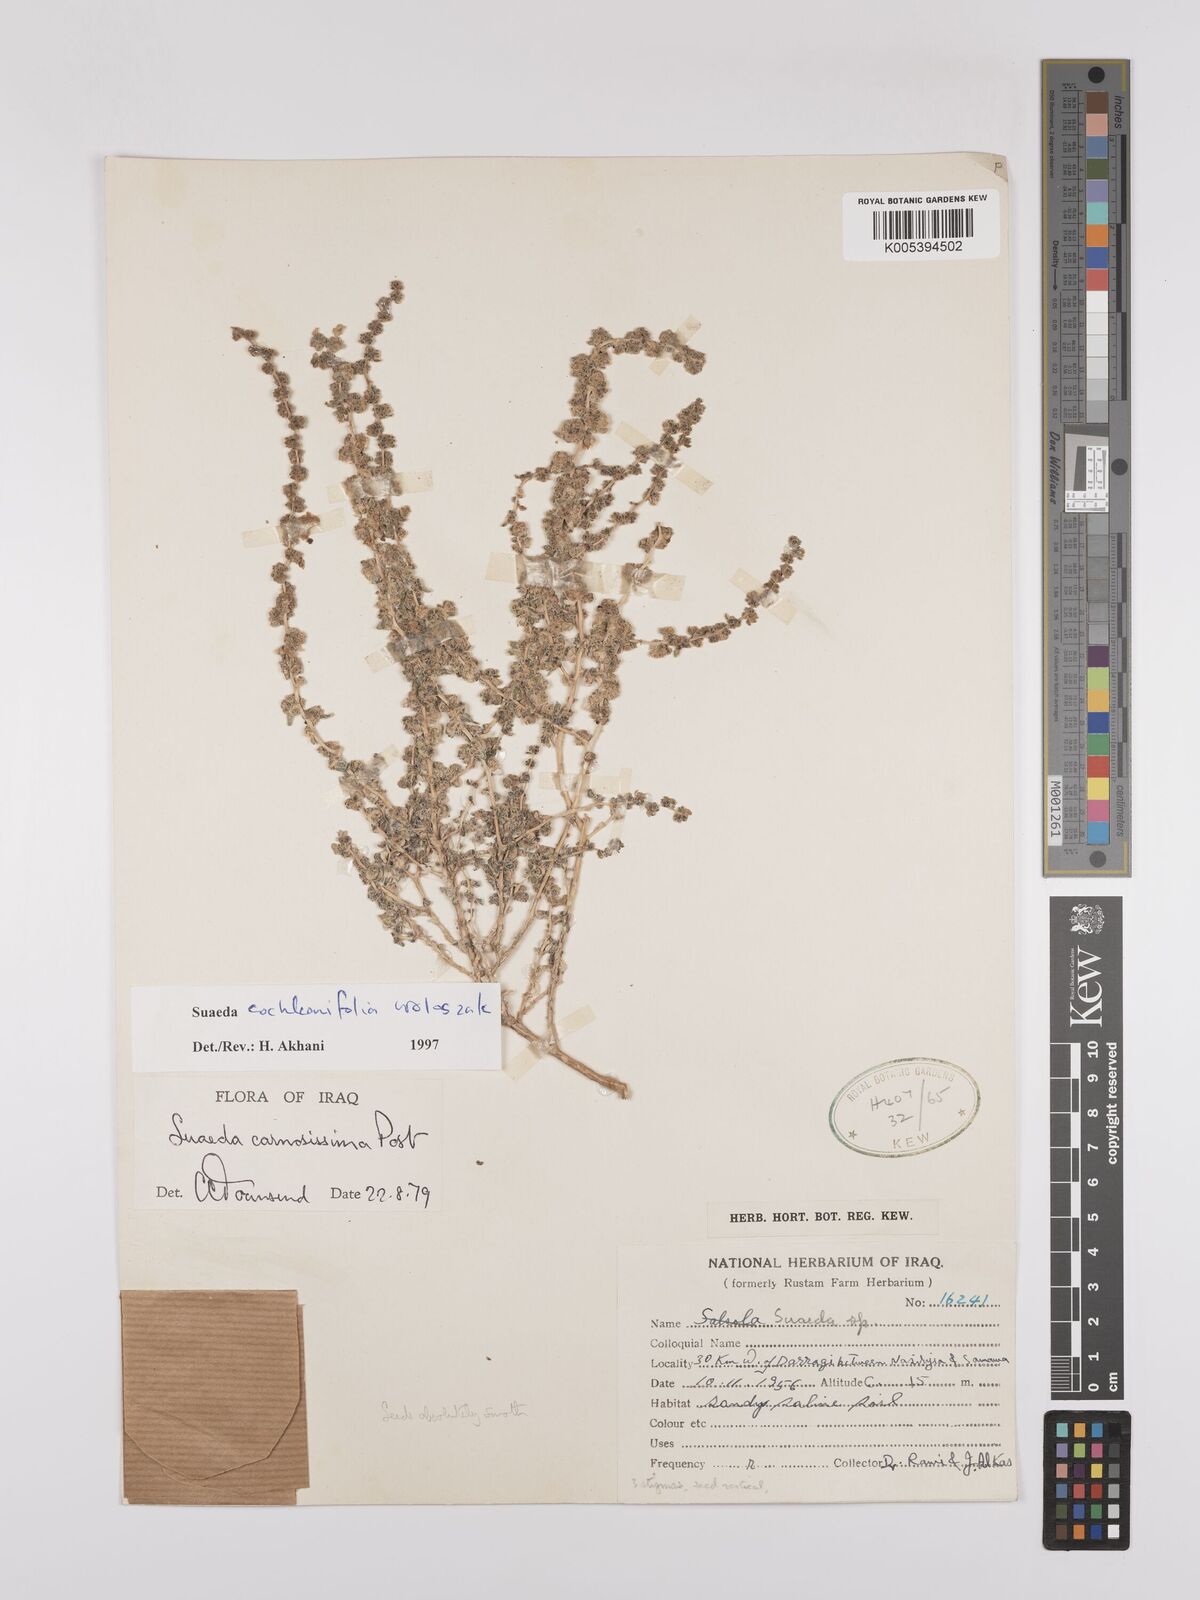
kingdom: Plantae
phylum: Tracheophyta
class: Magnoliopsida
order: Caryophyllales
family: Amaranthaceae
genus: Suaeda
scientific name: Suaeda carnosissima
